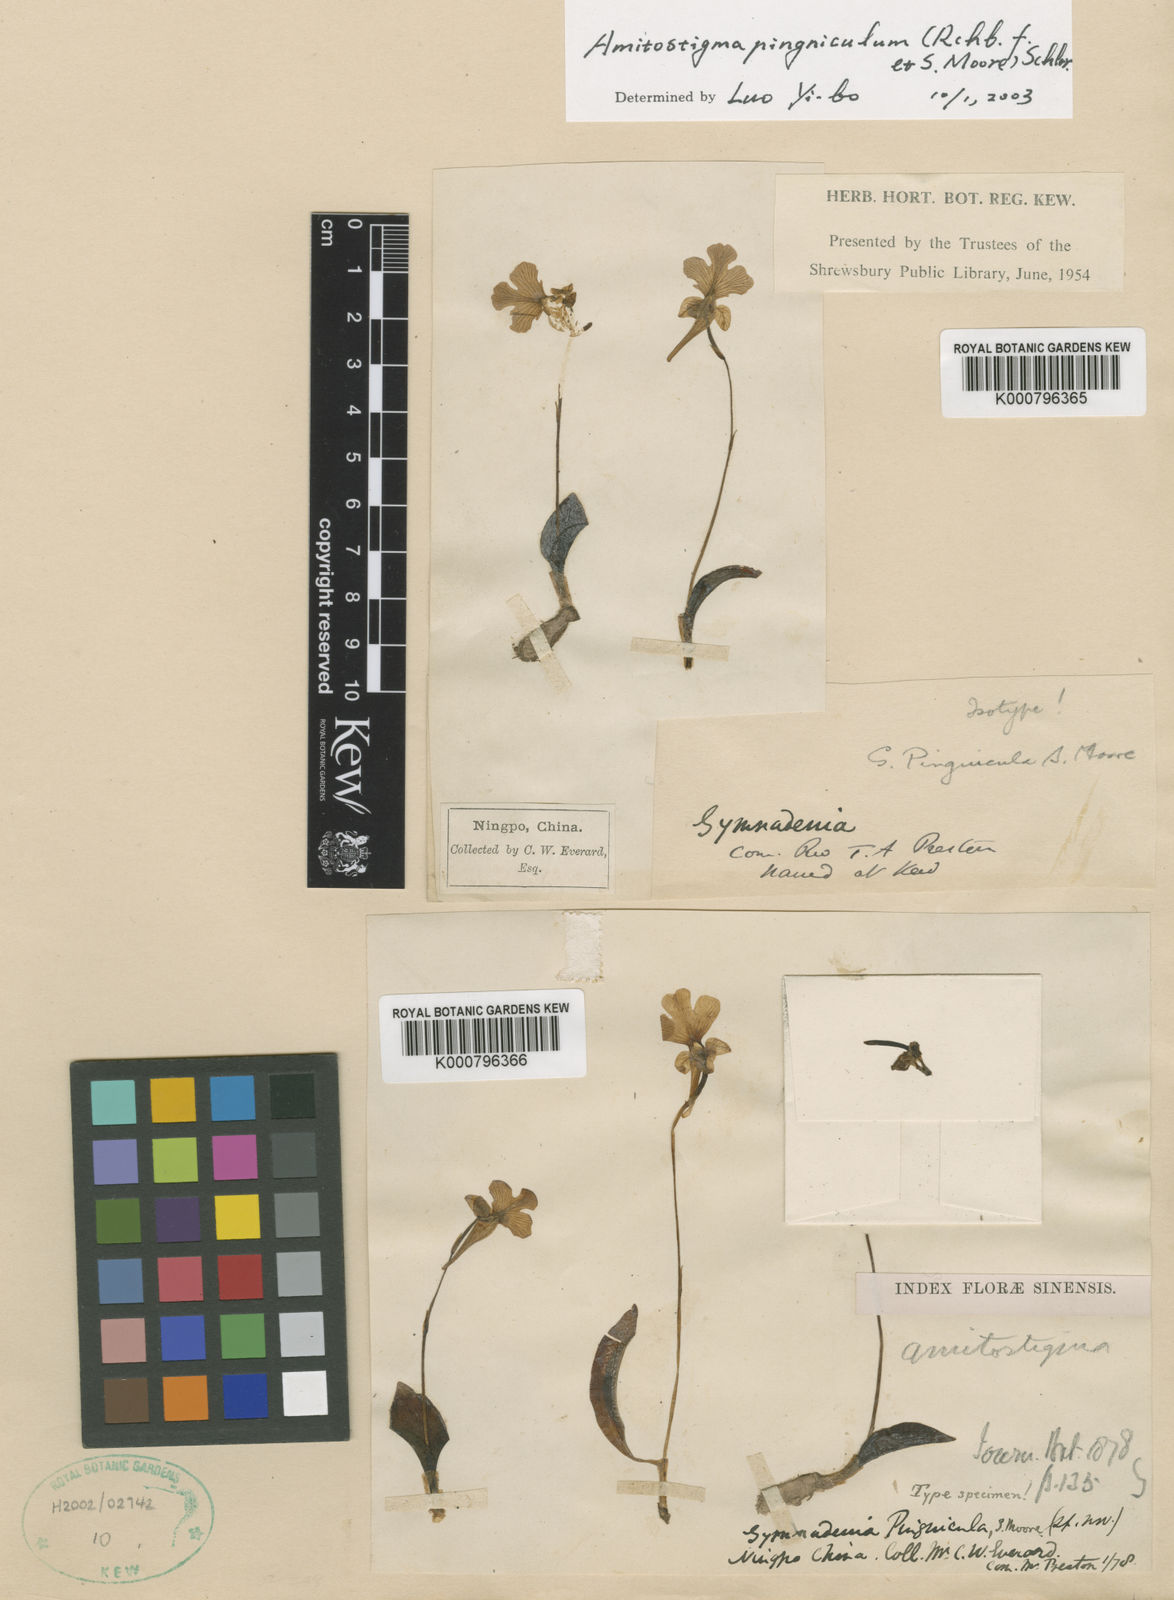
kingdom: Plantae
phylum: Tracheophyta
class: Liliopsida
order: Asparagales
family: Orchidaceae
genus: Hemipilia
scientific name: Hemipilia pinguicula
